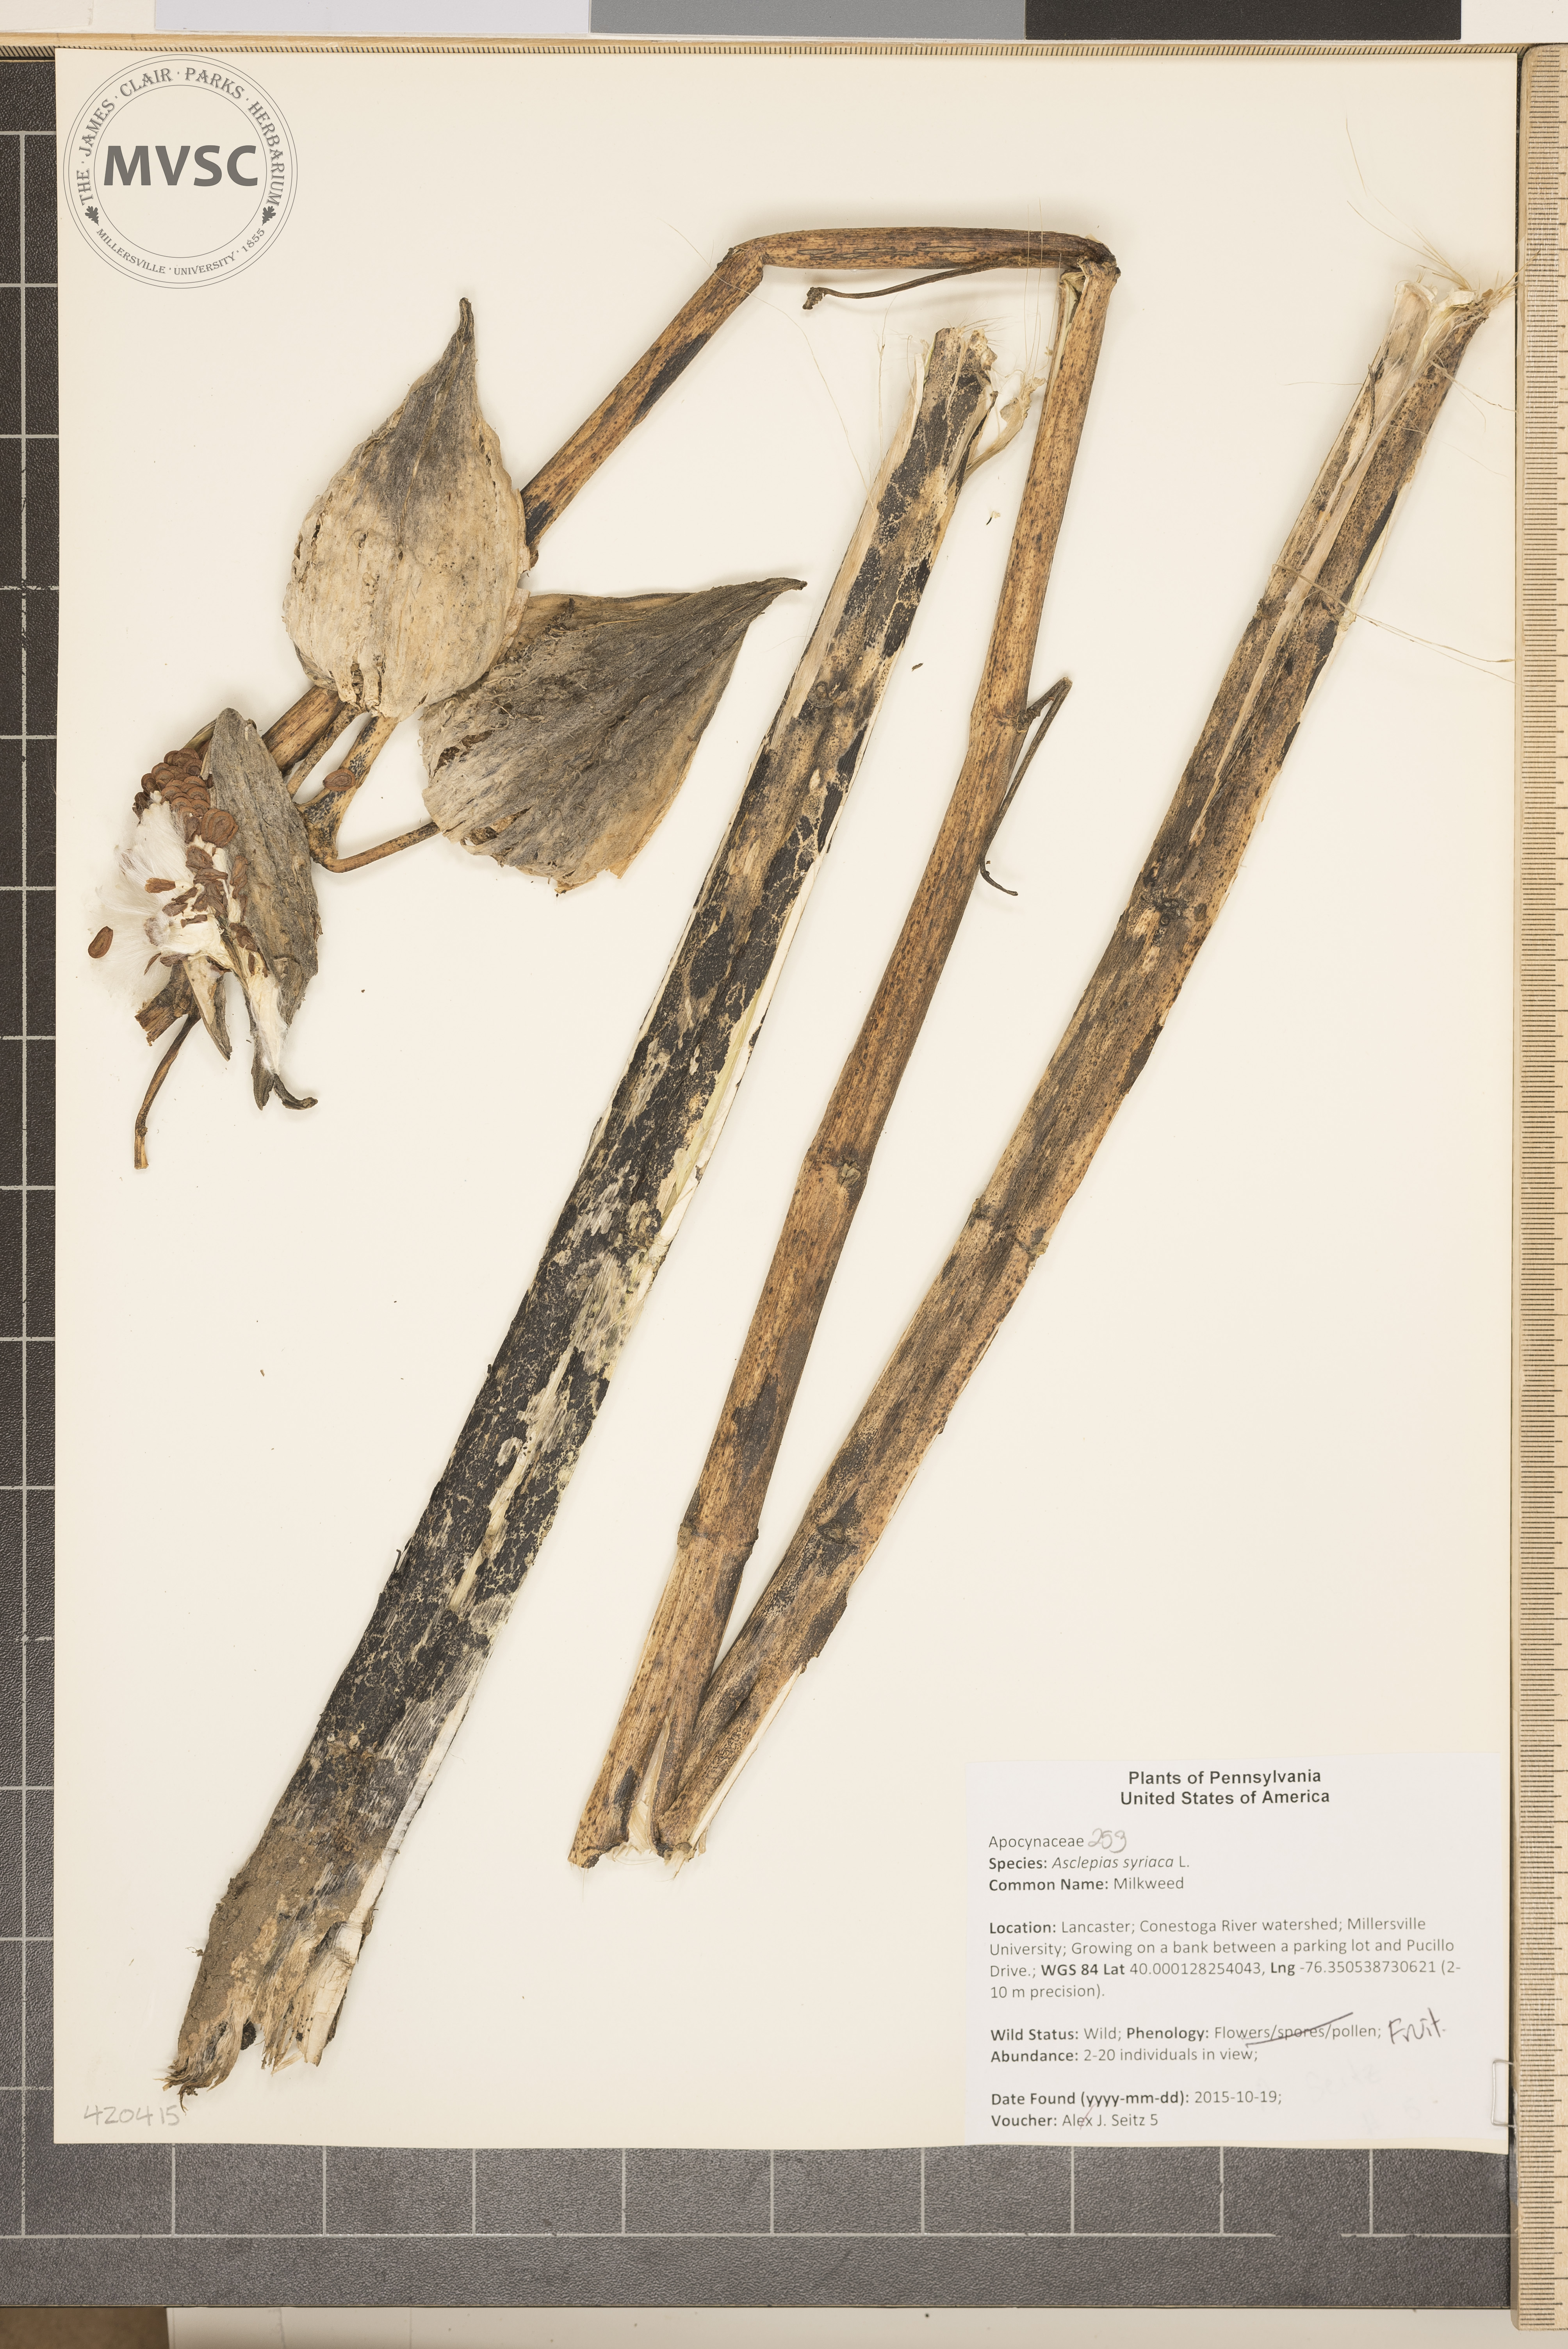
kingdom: Plantae
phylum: Tracheophyta
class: Magnoliopsida
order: Gentianales
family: Apocynaceae
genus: Asclepias
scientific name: Asclepias syriaca
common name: Milkweed
